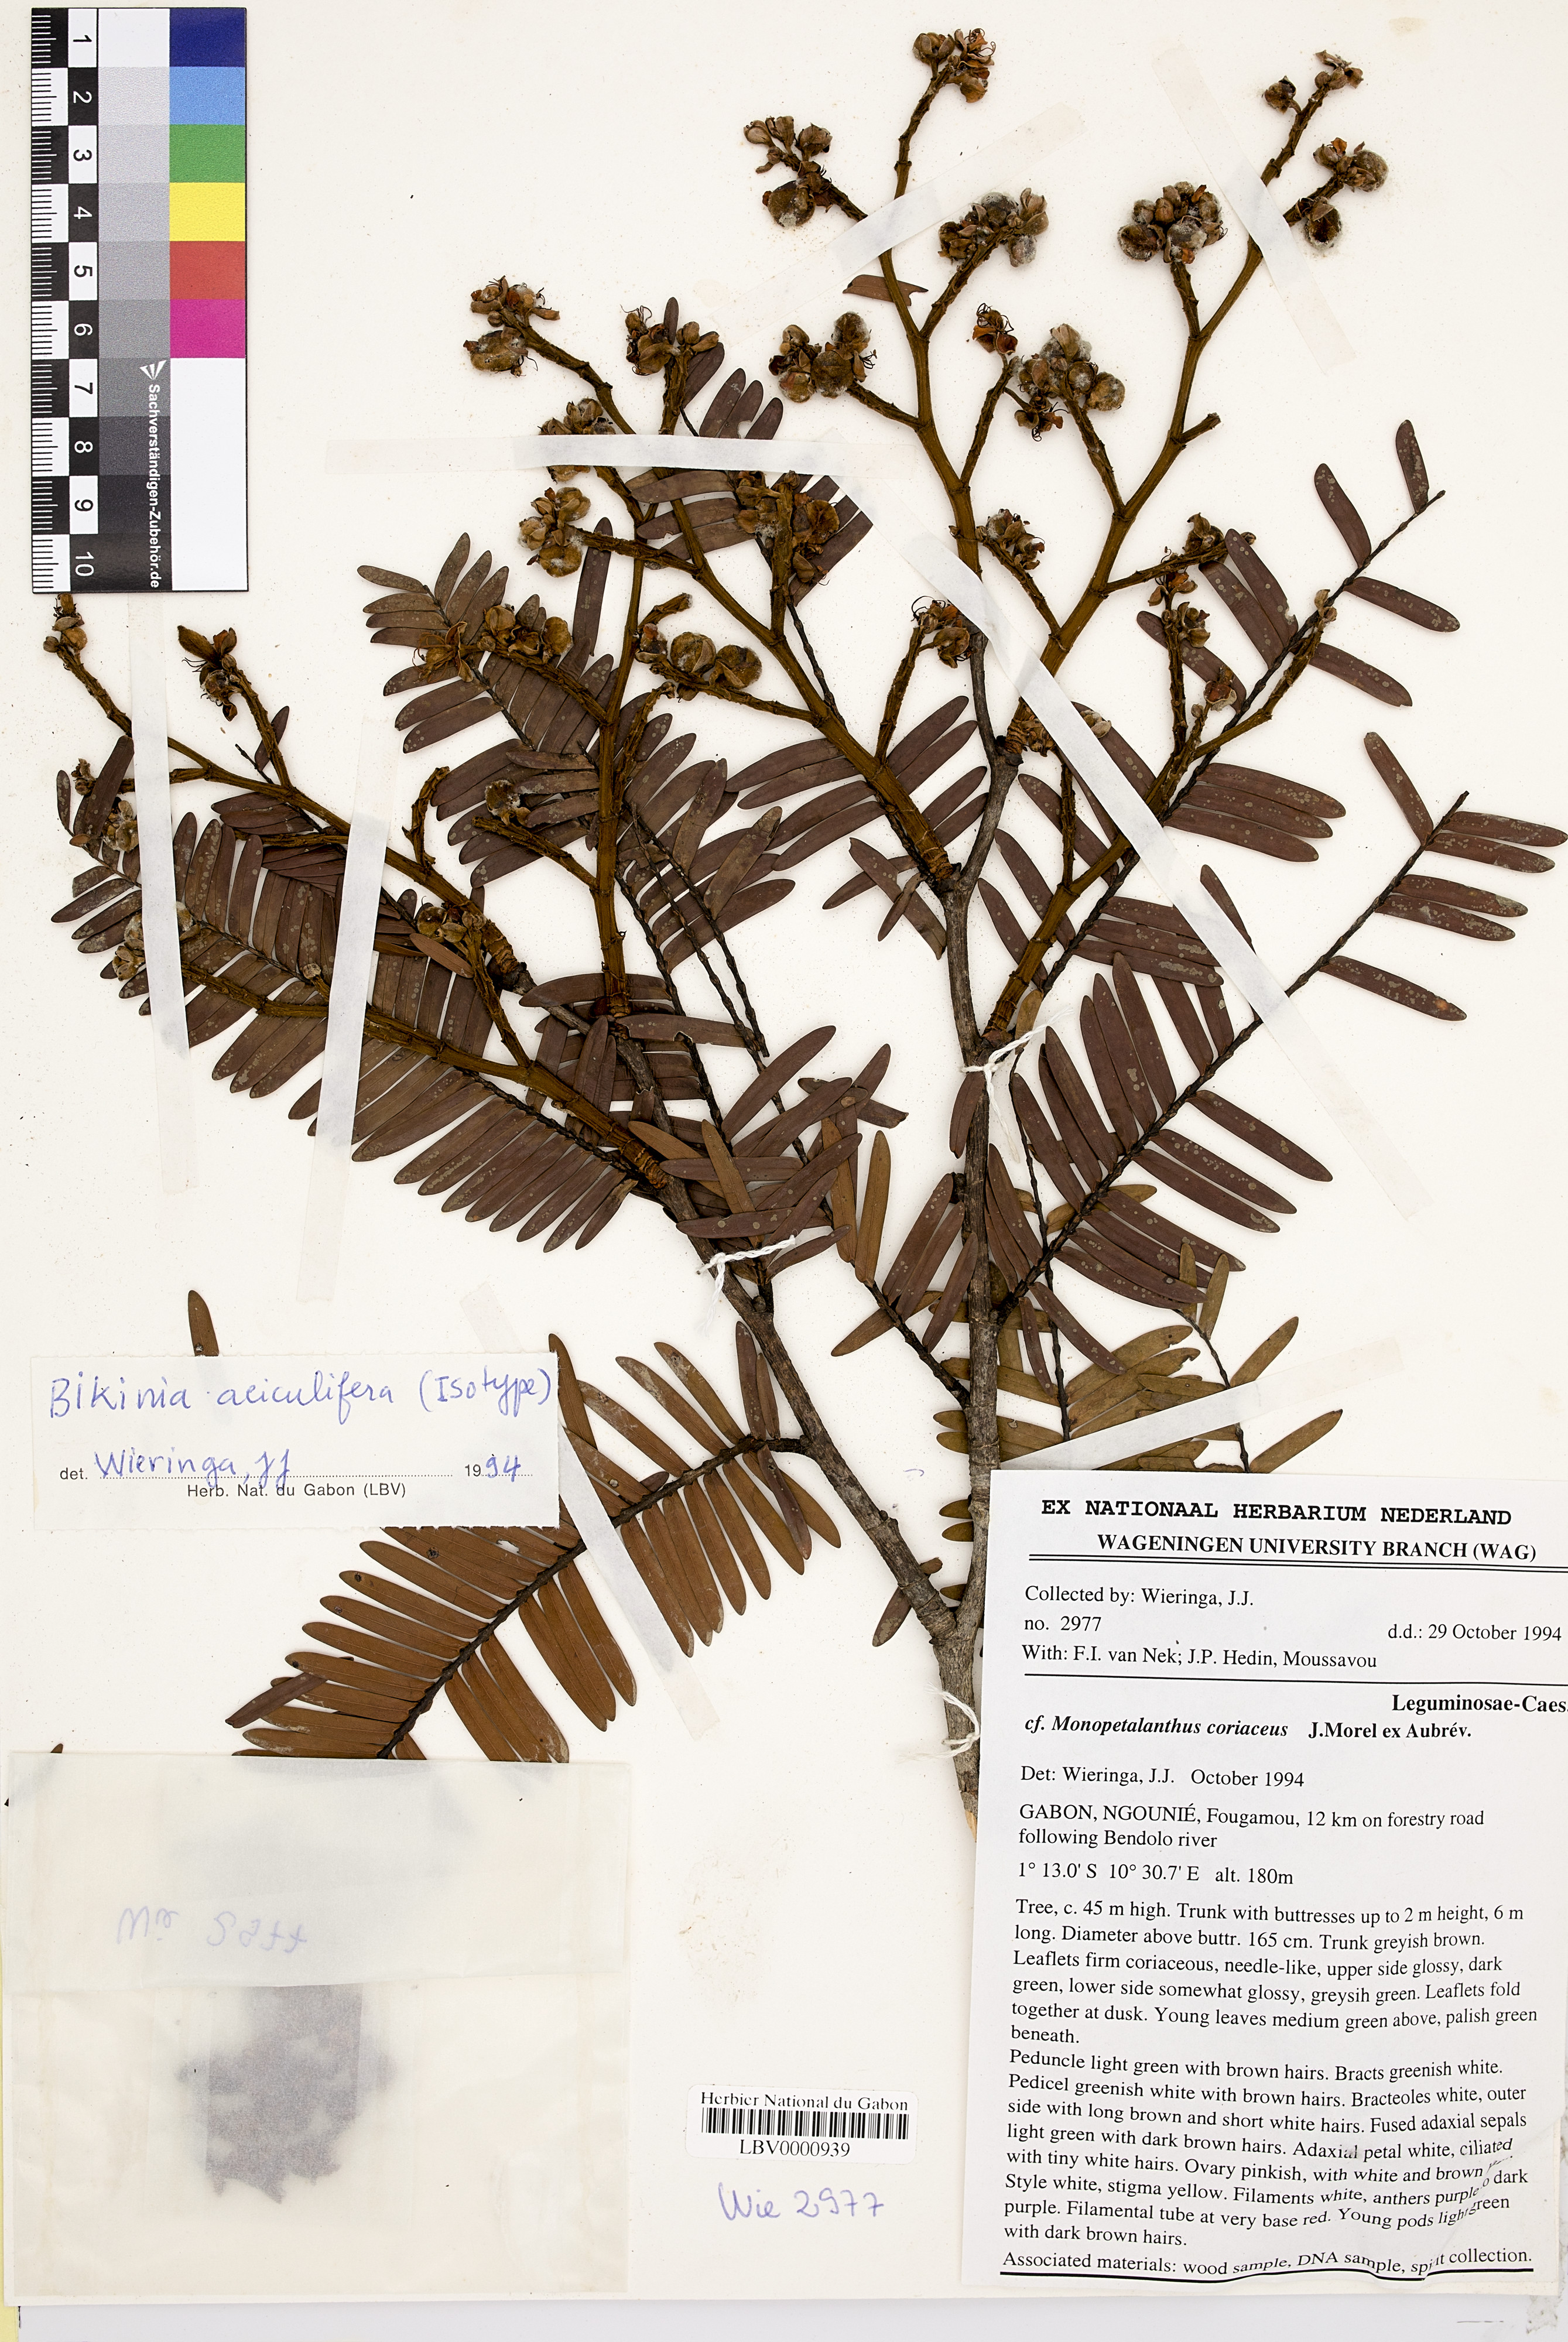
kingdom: Plantae
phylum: Tracheophyta
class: Magnoliopsida
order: Fabales
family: Fabaceae
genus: Bikinia
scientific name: Bikinia aciculifera
